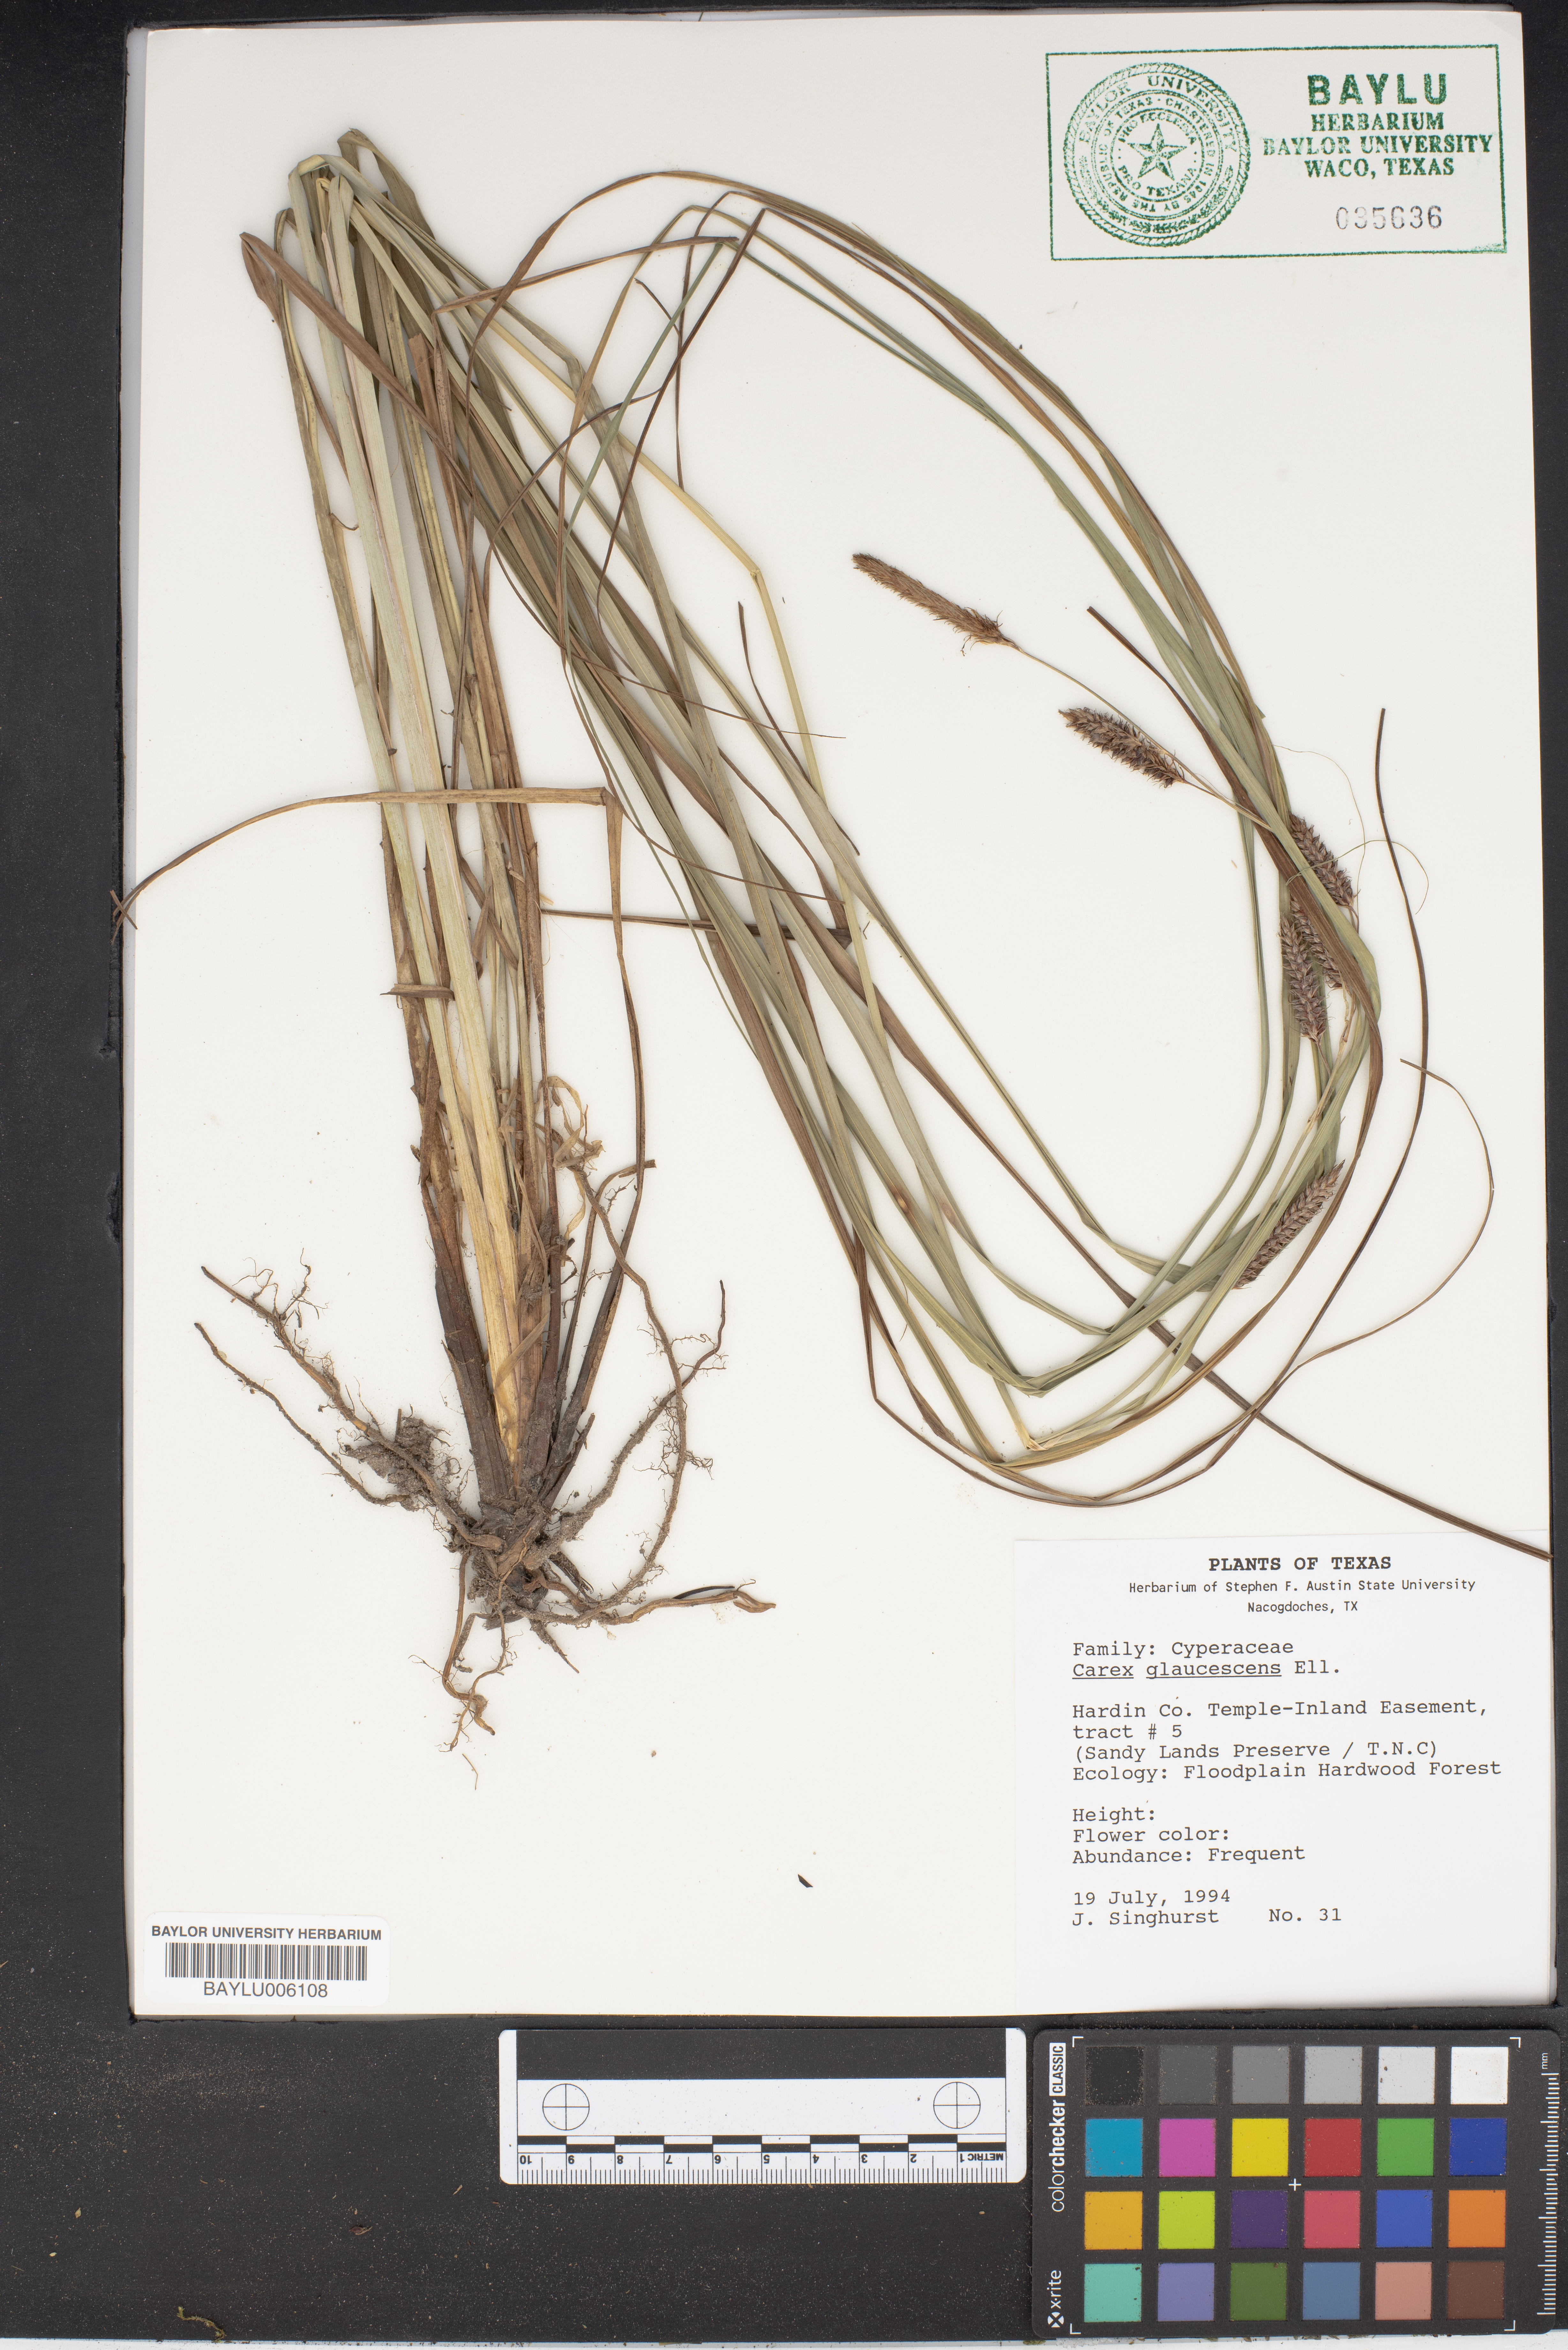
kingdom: Plantae
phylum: Tracheophyta
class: Liliopsida
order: Poales
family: Cyperaceae
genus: Carex
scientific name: Carex glaucescens
